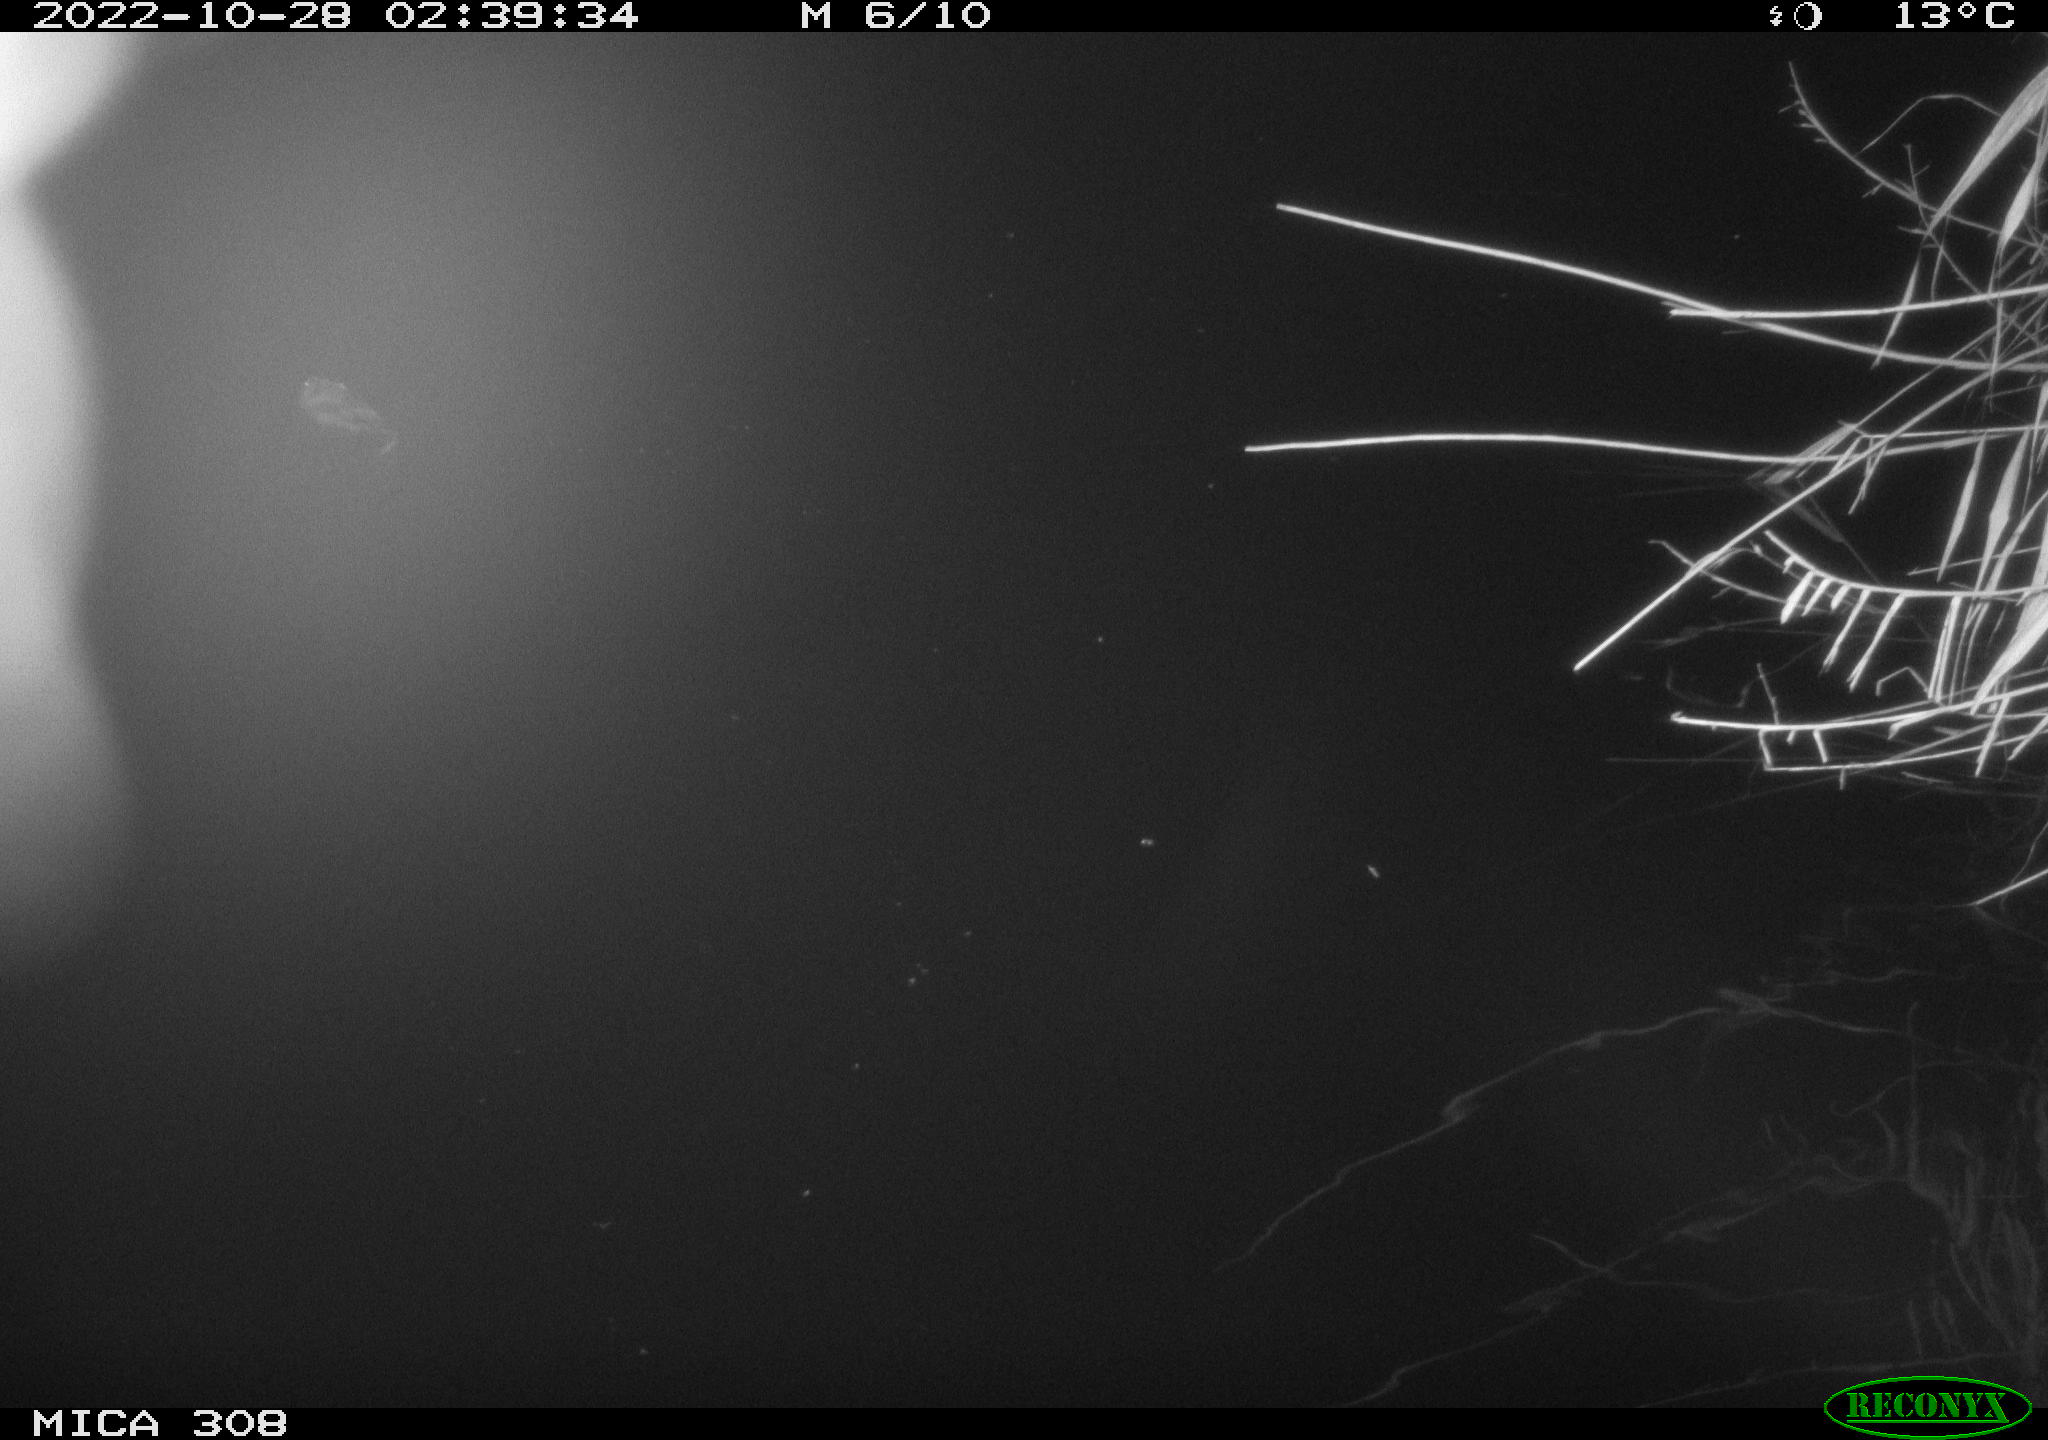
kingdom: Animalia
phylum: Chordata
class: Mammalia
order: Rodentia
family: Cricetidae
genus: Ondatra
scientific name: Ondatra zibethicus
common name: Muskrat
